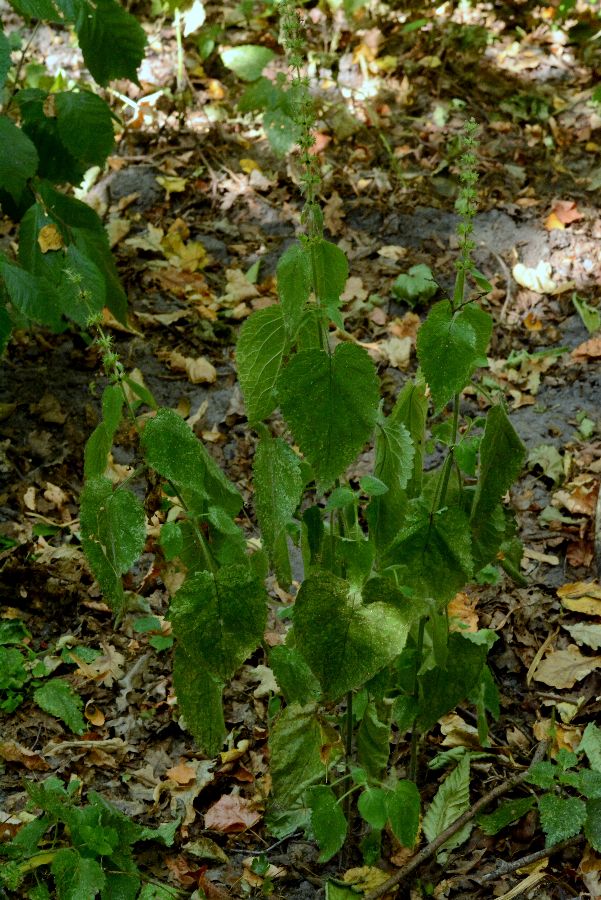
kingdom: Plantae
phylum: Tracheophyta
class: Magnoliopsida
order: Lamiales
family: Lamiaceae
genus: Stachys
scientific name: Stachys sylvatica
